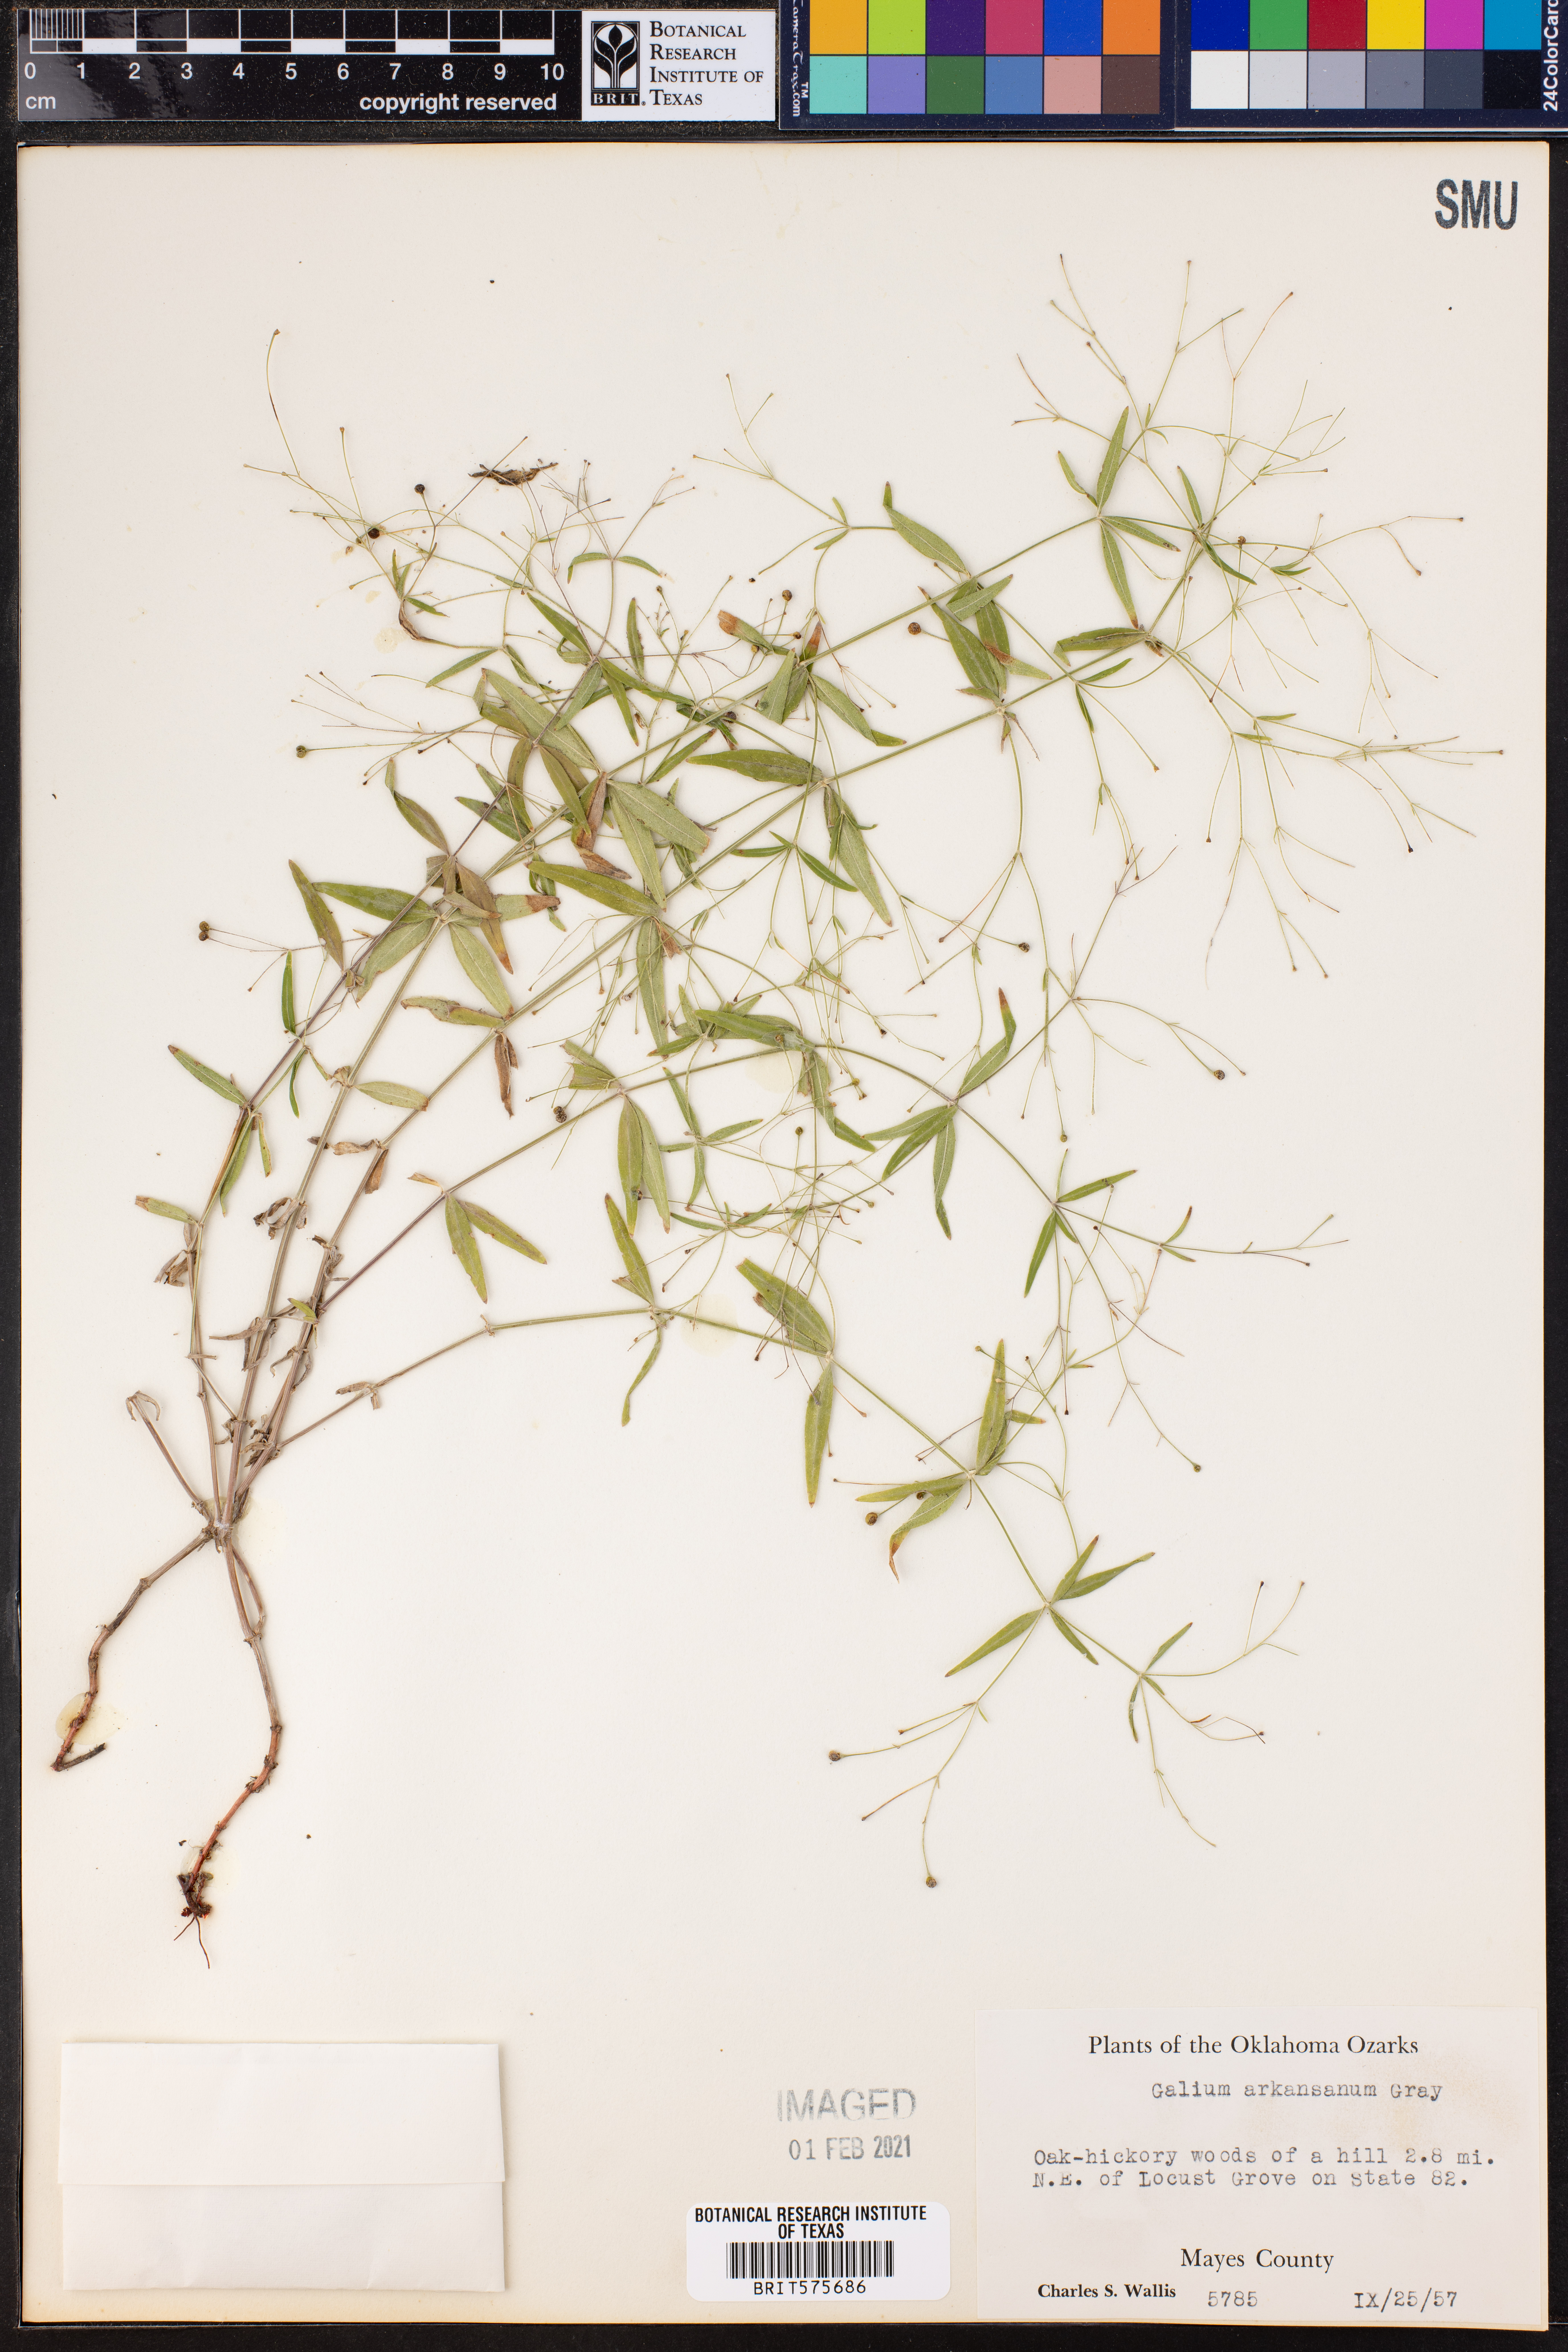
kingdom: Plantae
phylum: Tracheophyta
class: Magnoliopsida
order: Gentianales
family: Rubiaceae
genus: Galium
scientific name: Galium arkansanum
